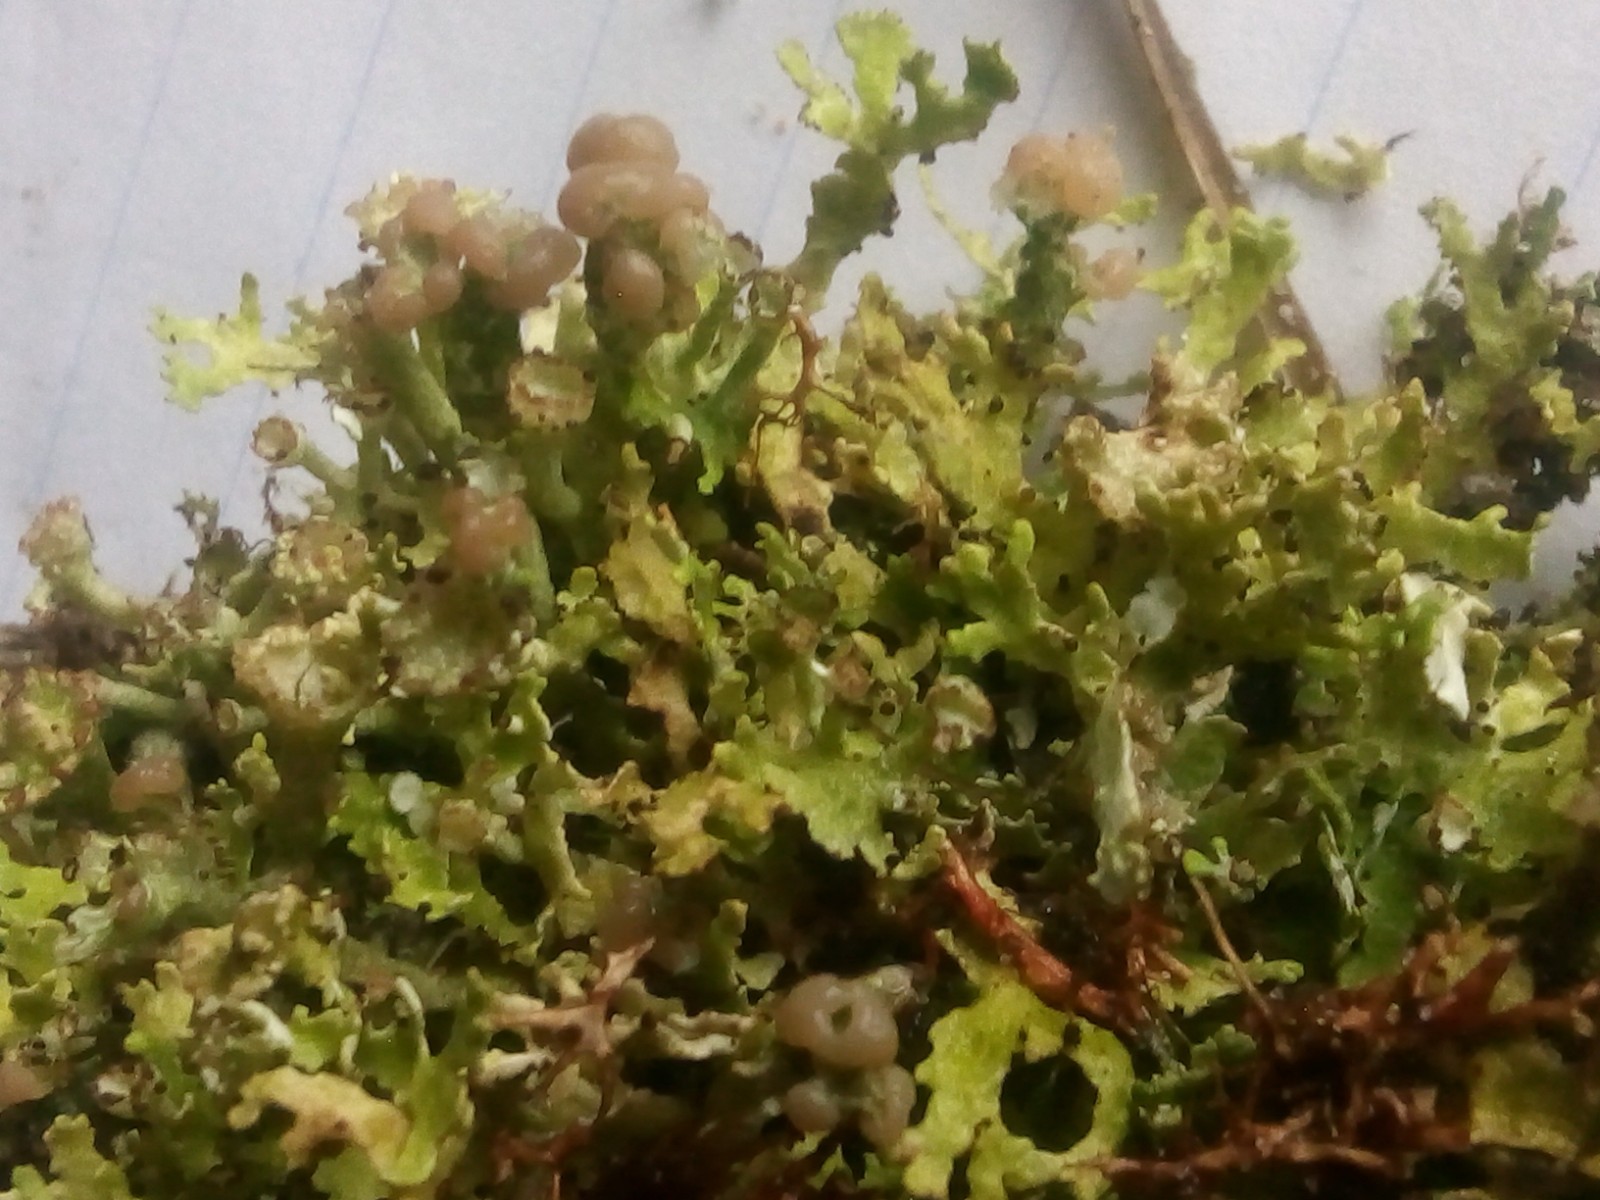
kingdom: Fungi
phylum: Ascomycota
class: Lecanoromycetes
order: Lecanorales
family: Cladoniaceae
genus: Cladonia
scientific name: Cladonia foliacea
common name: fliget bægerlav
